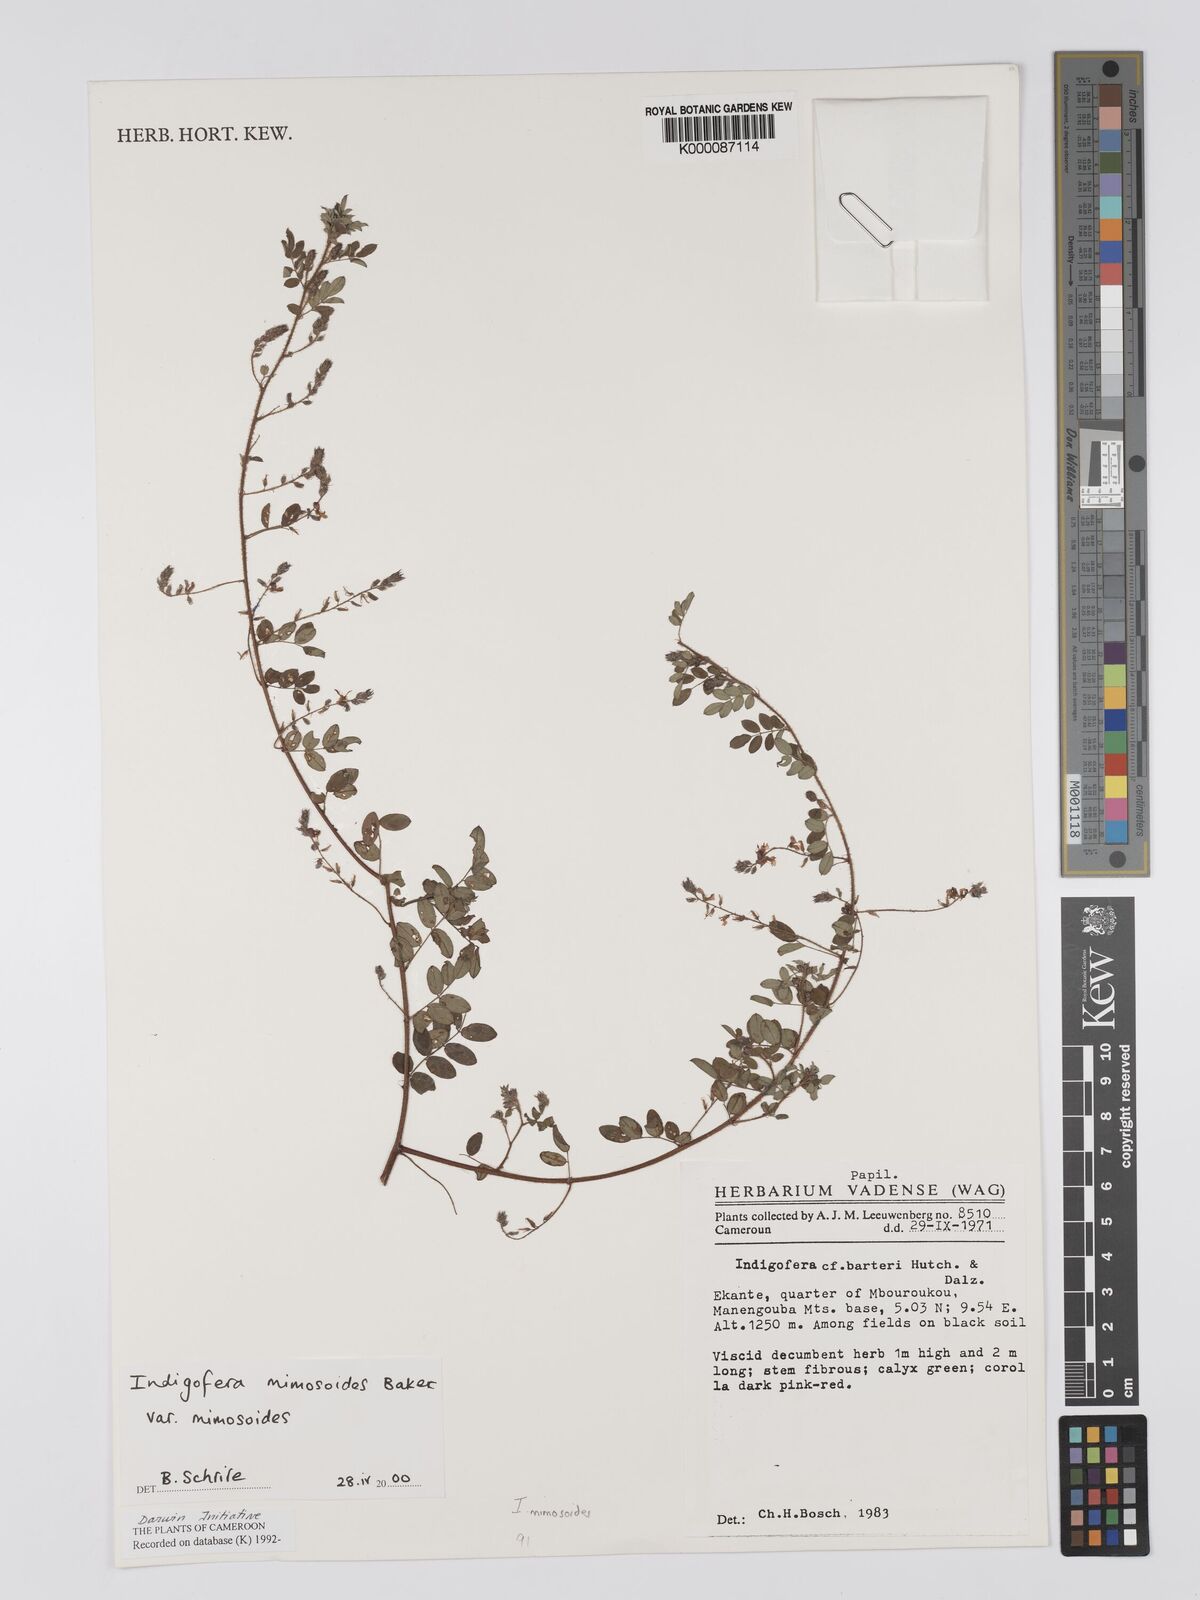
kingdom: Plantae
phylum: Tracheophyta
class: Magnoliopsida
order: Fabales
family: Fabaceae
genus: Indigofera
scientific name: Indigofera mimosoides
